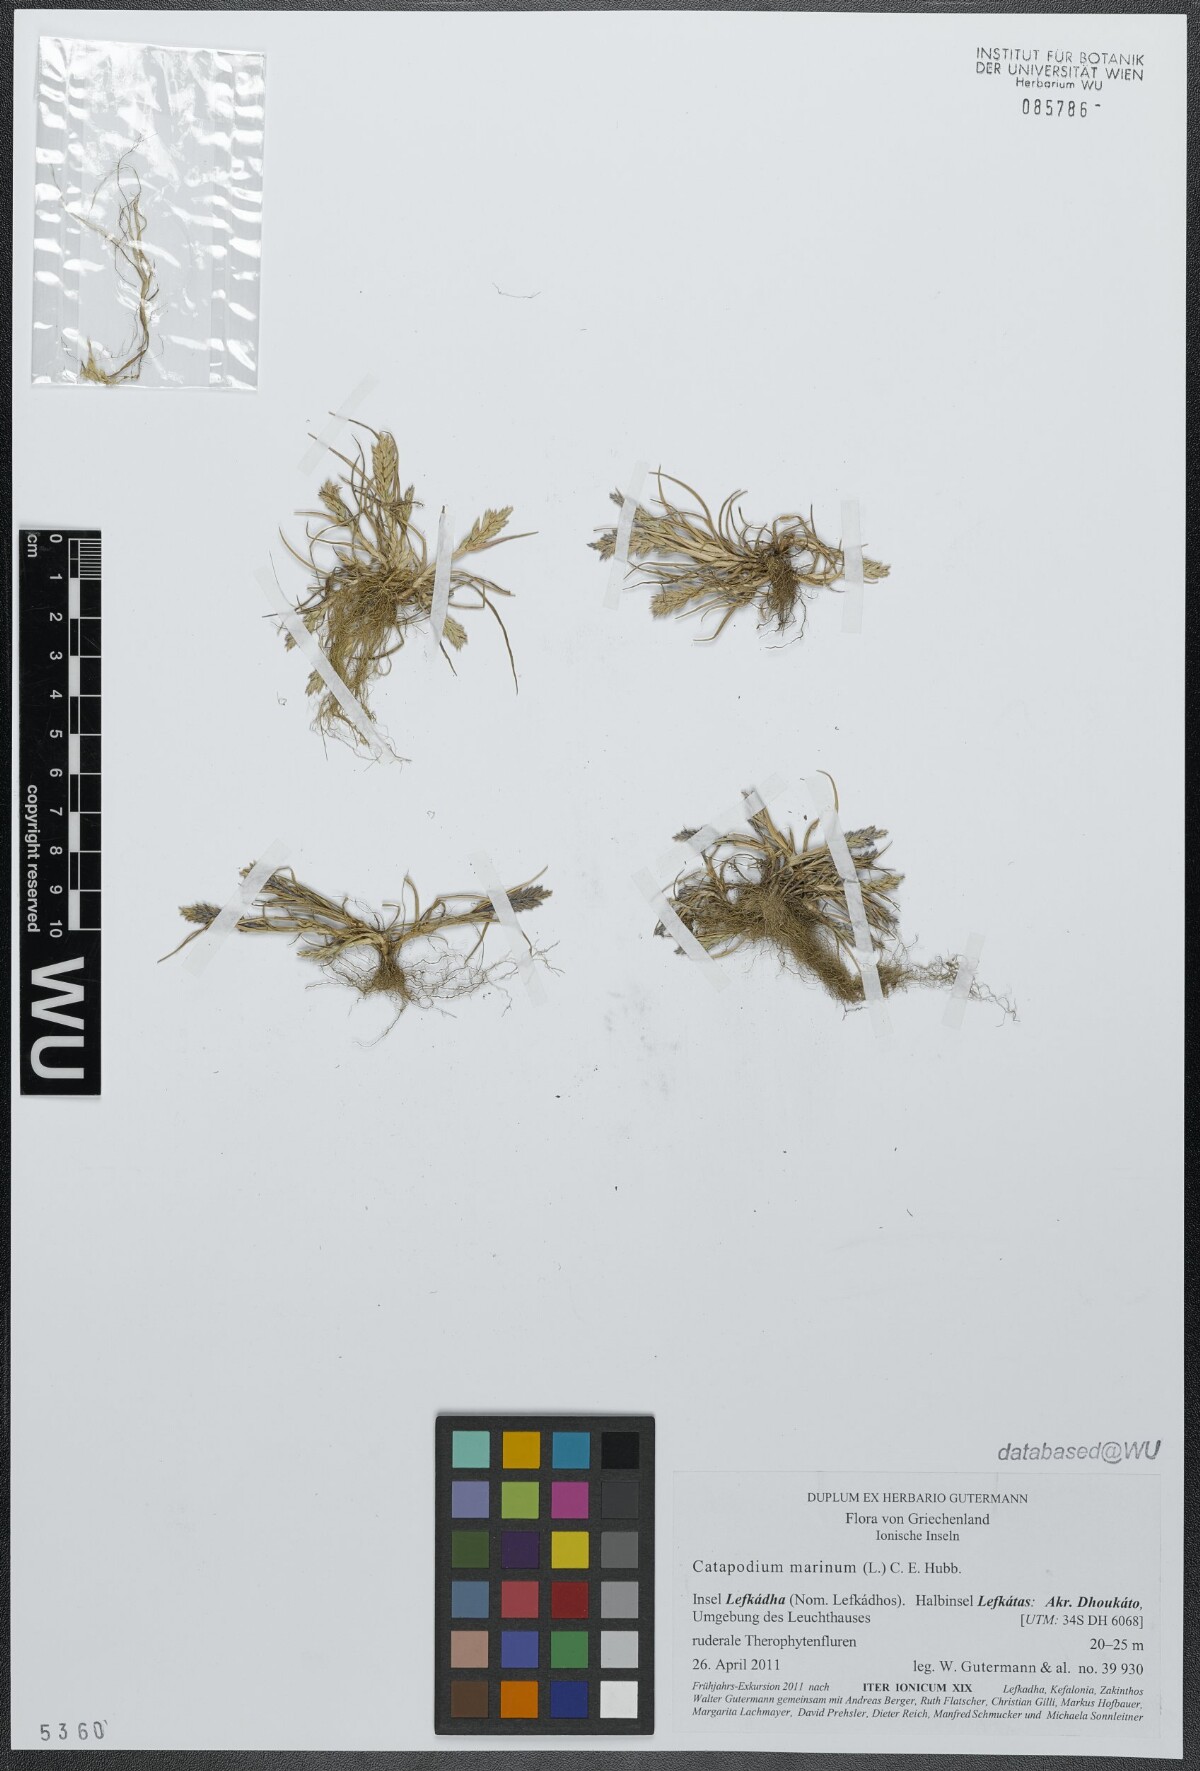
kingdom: Plantae
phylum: Tracheophyta
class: Liliopsida
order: Poales
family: Poaceae
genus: Catapodium
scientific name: Catapodium marinum
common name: Sea fern-grass
